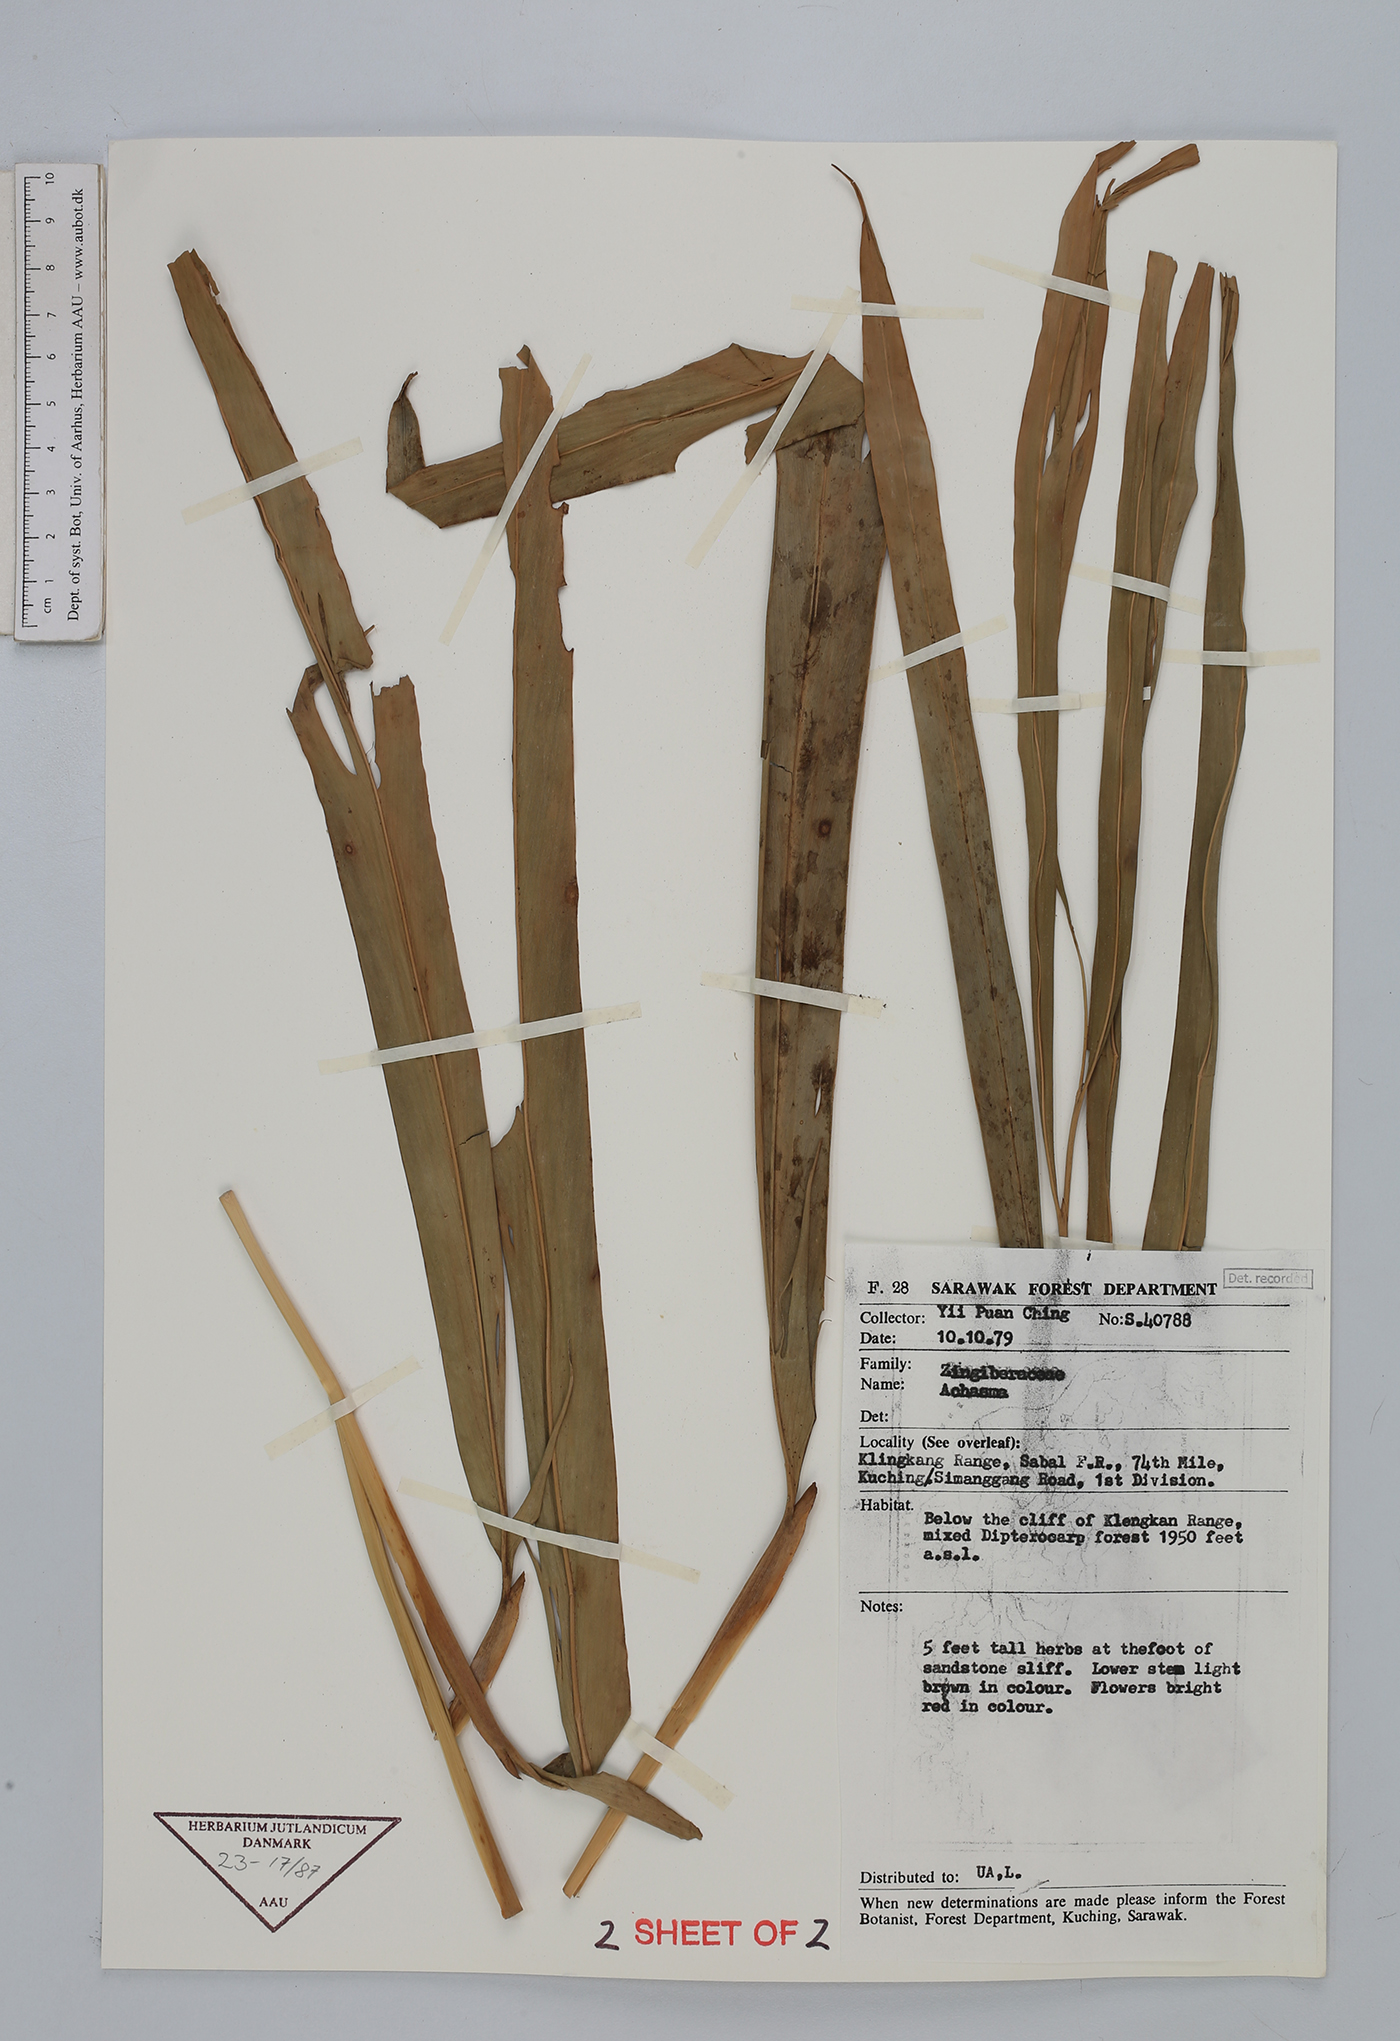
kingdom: Plantae
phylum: Tracheophyta
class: Liliopsida
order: Zingiberales
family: Zingiberaceae
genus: Etlingera
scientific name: Etlingera
